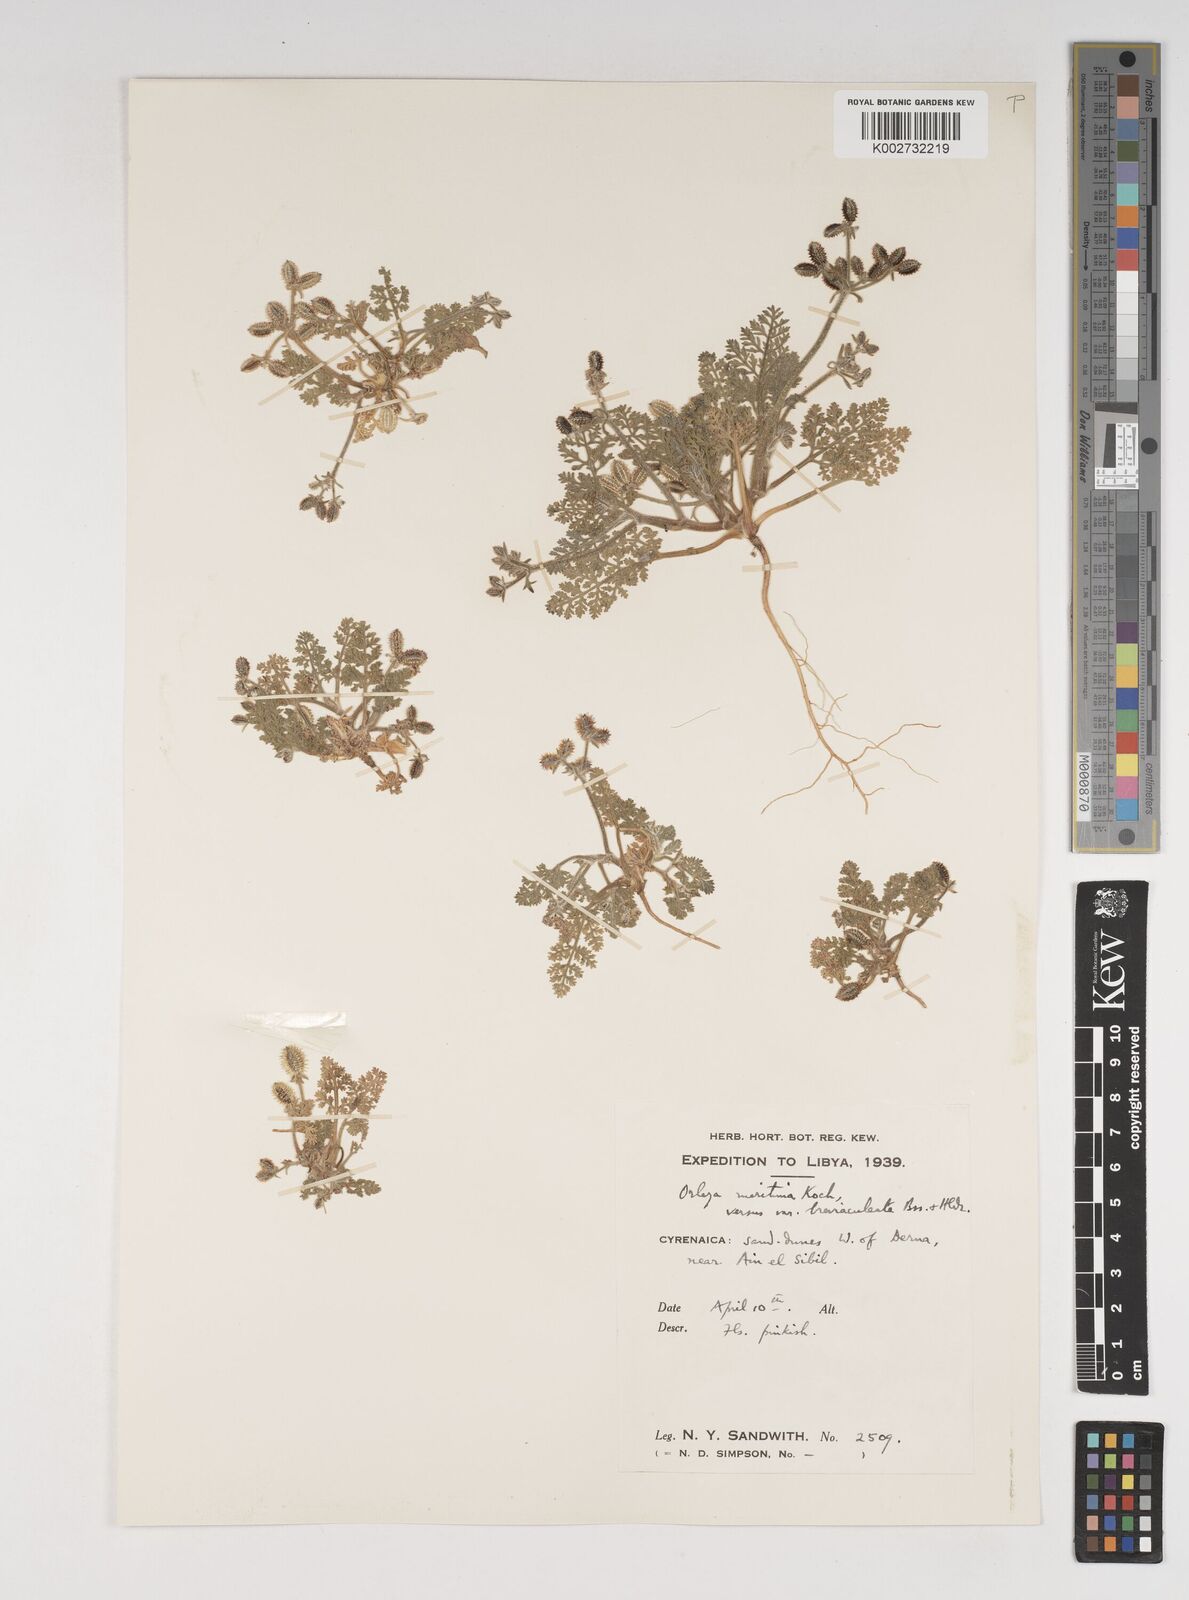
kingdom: Plantae
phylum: Tracheophyta
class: Magnoliopsida
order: Apiales
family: Apiaceae
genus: Daucus
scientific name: Daucus pumilus
